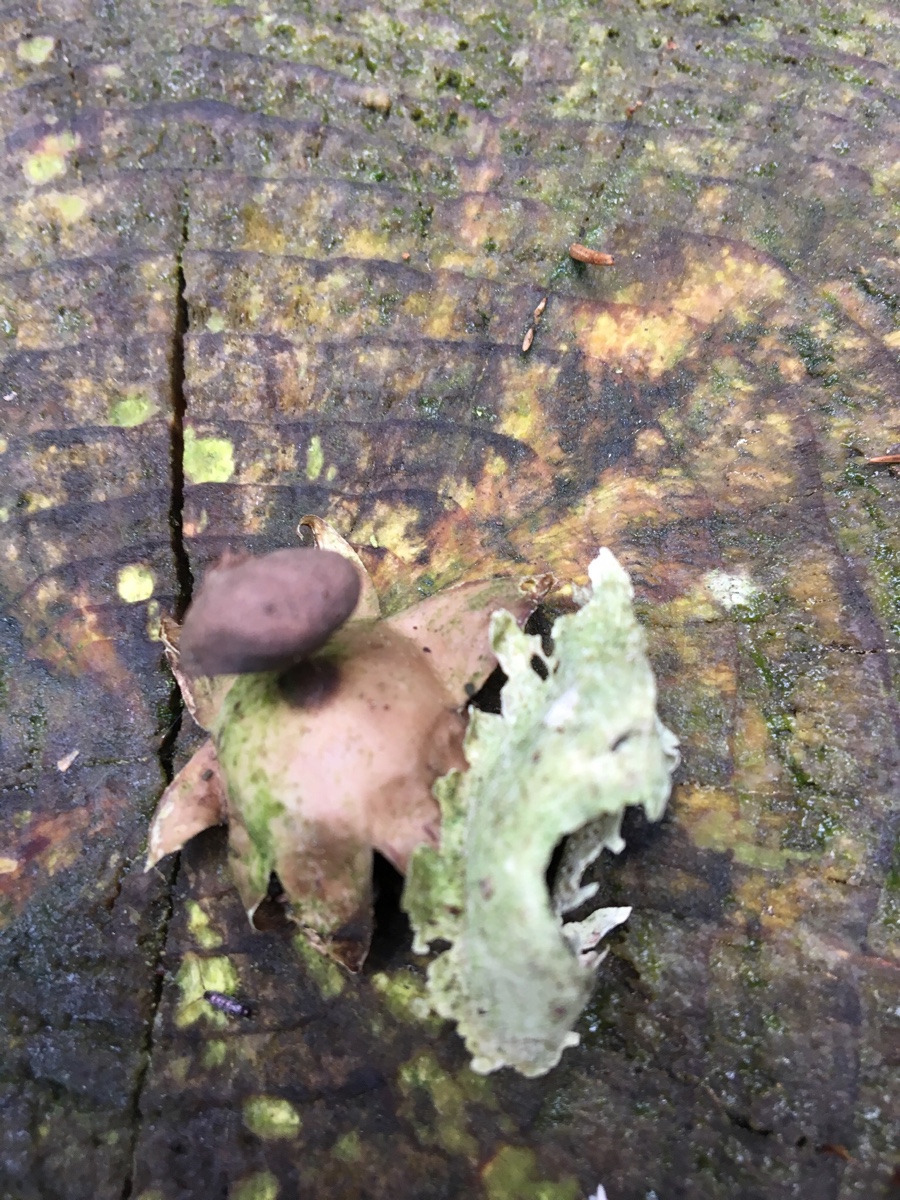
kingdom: Fungi
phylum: Basidiomycota
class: Agaricomycetes
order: Geastrales
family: Geastraceae
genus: Geastrum
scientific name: Geastrum pectinatum
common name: stilket stjernebold
